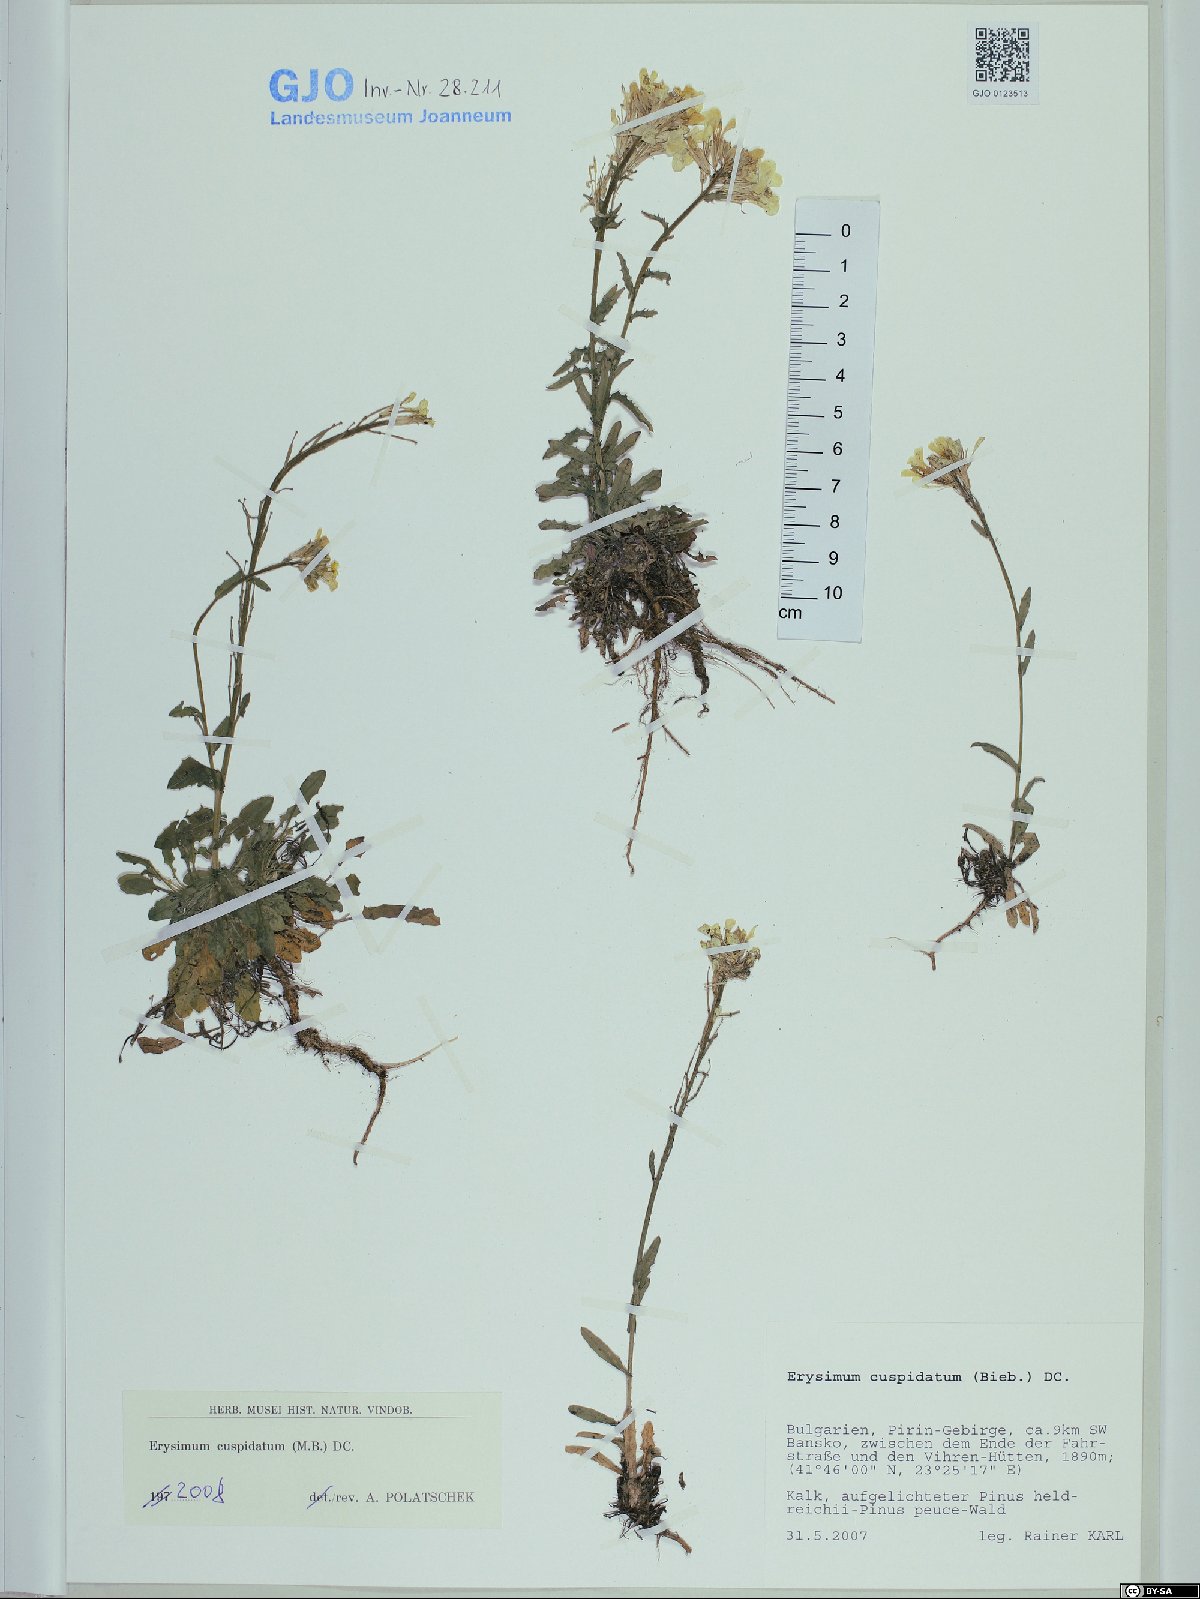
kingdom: Plantae
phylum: Tracheophyta
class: Magnoliopsida
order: Brassicales
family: Brassicaceae
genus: Erysimum
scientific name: Erysimum cuspidatum
